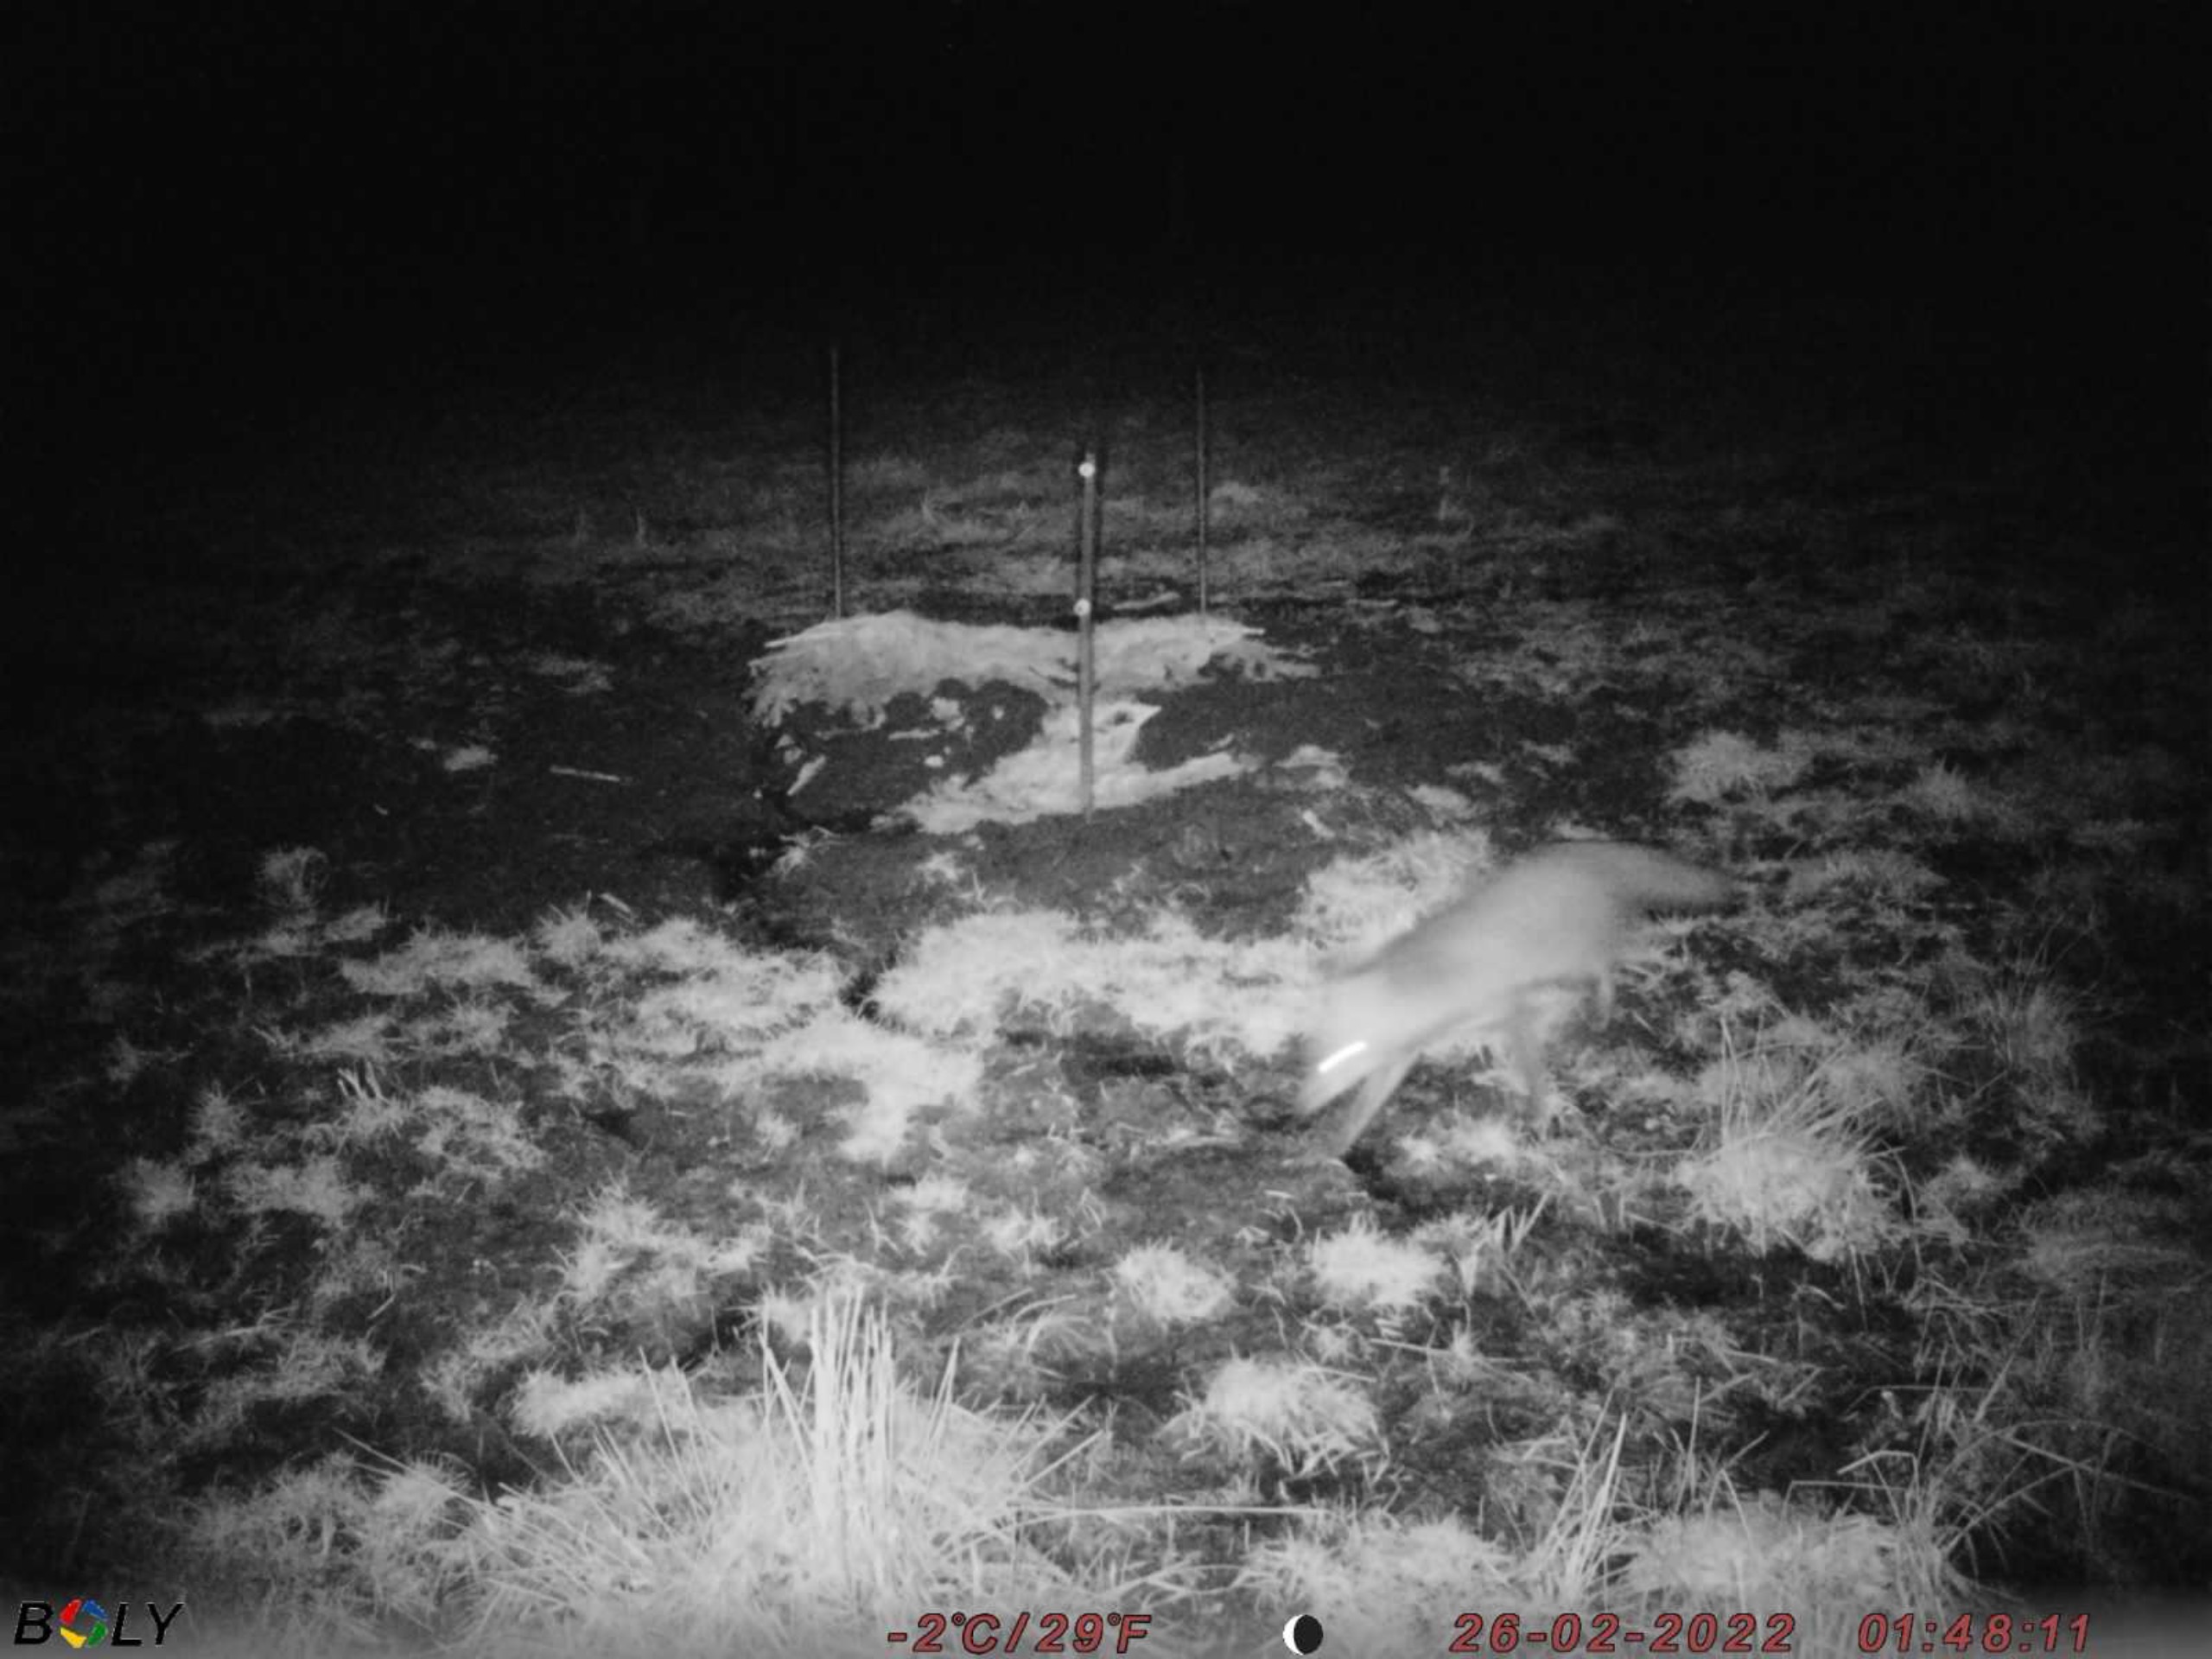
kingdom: Animalia
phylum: Chordata
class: Mammalia
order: Carnivora
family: Canidae
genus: Vulpes
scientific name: Vulpes vulpes
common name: Ræv
